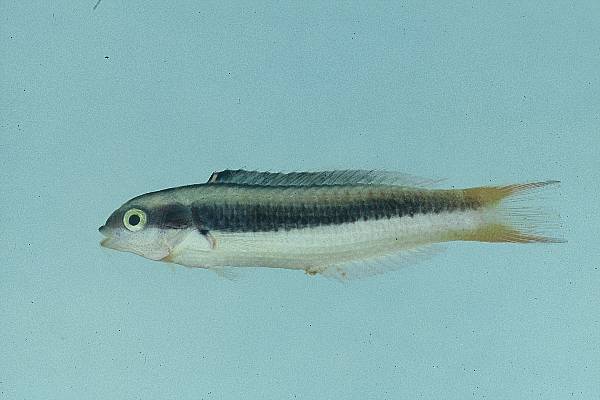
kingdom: Animalia
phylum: Chordata
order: Perciformes
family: Labridae
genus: Thalassoma
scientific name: Thalassoma amblycephalum
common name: Bluehead wrasse
